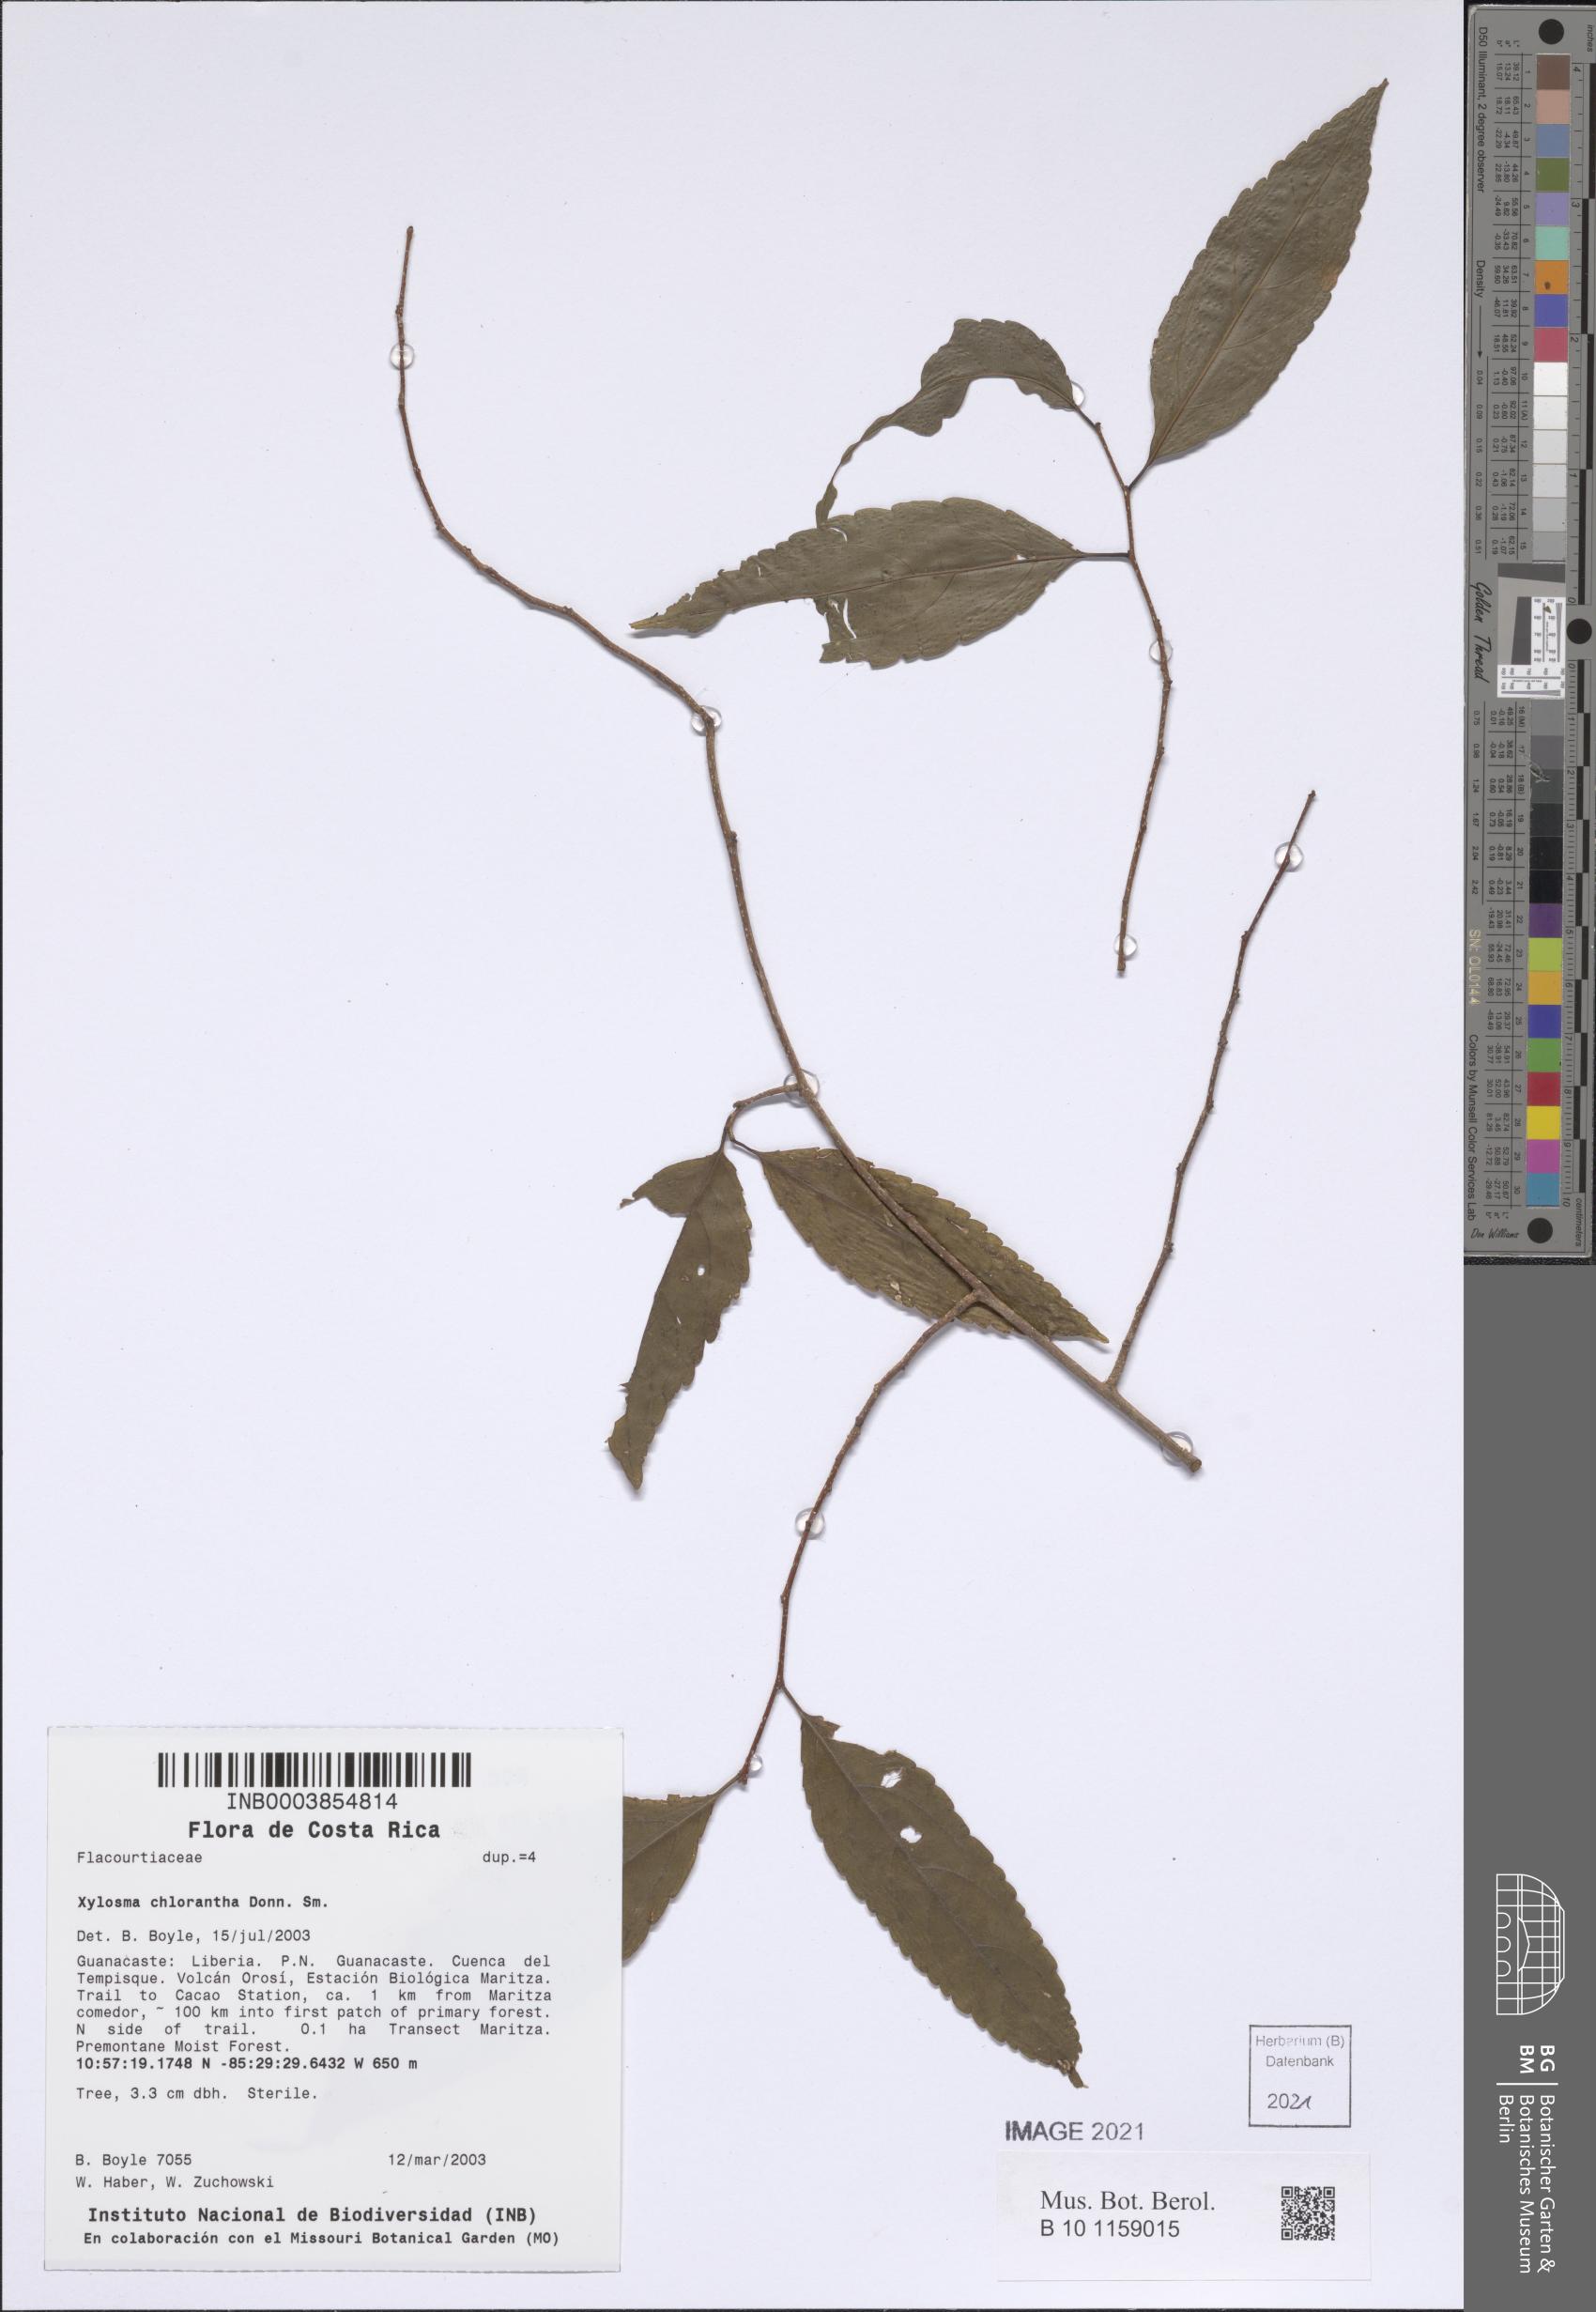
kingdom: Plantae
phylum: Tracheophyta
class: Magnoliopsida
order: Malpighiales
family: Salicaceae
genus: Xylosma
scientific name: Xylosma chlorantha
